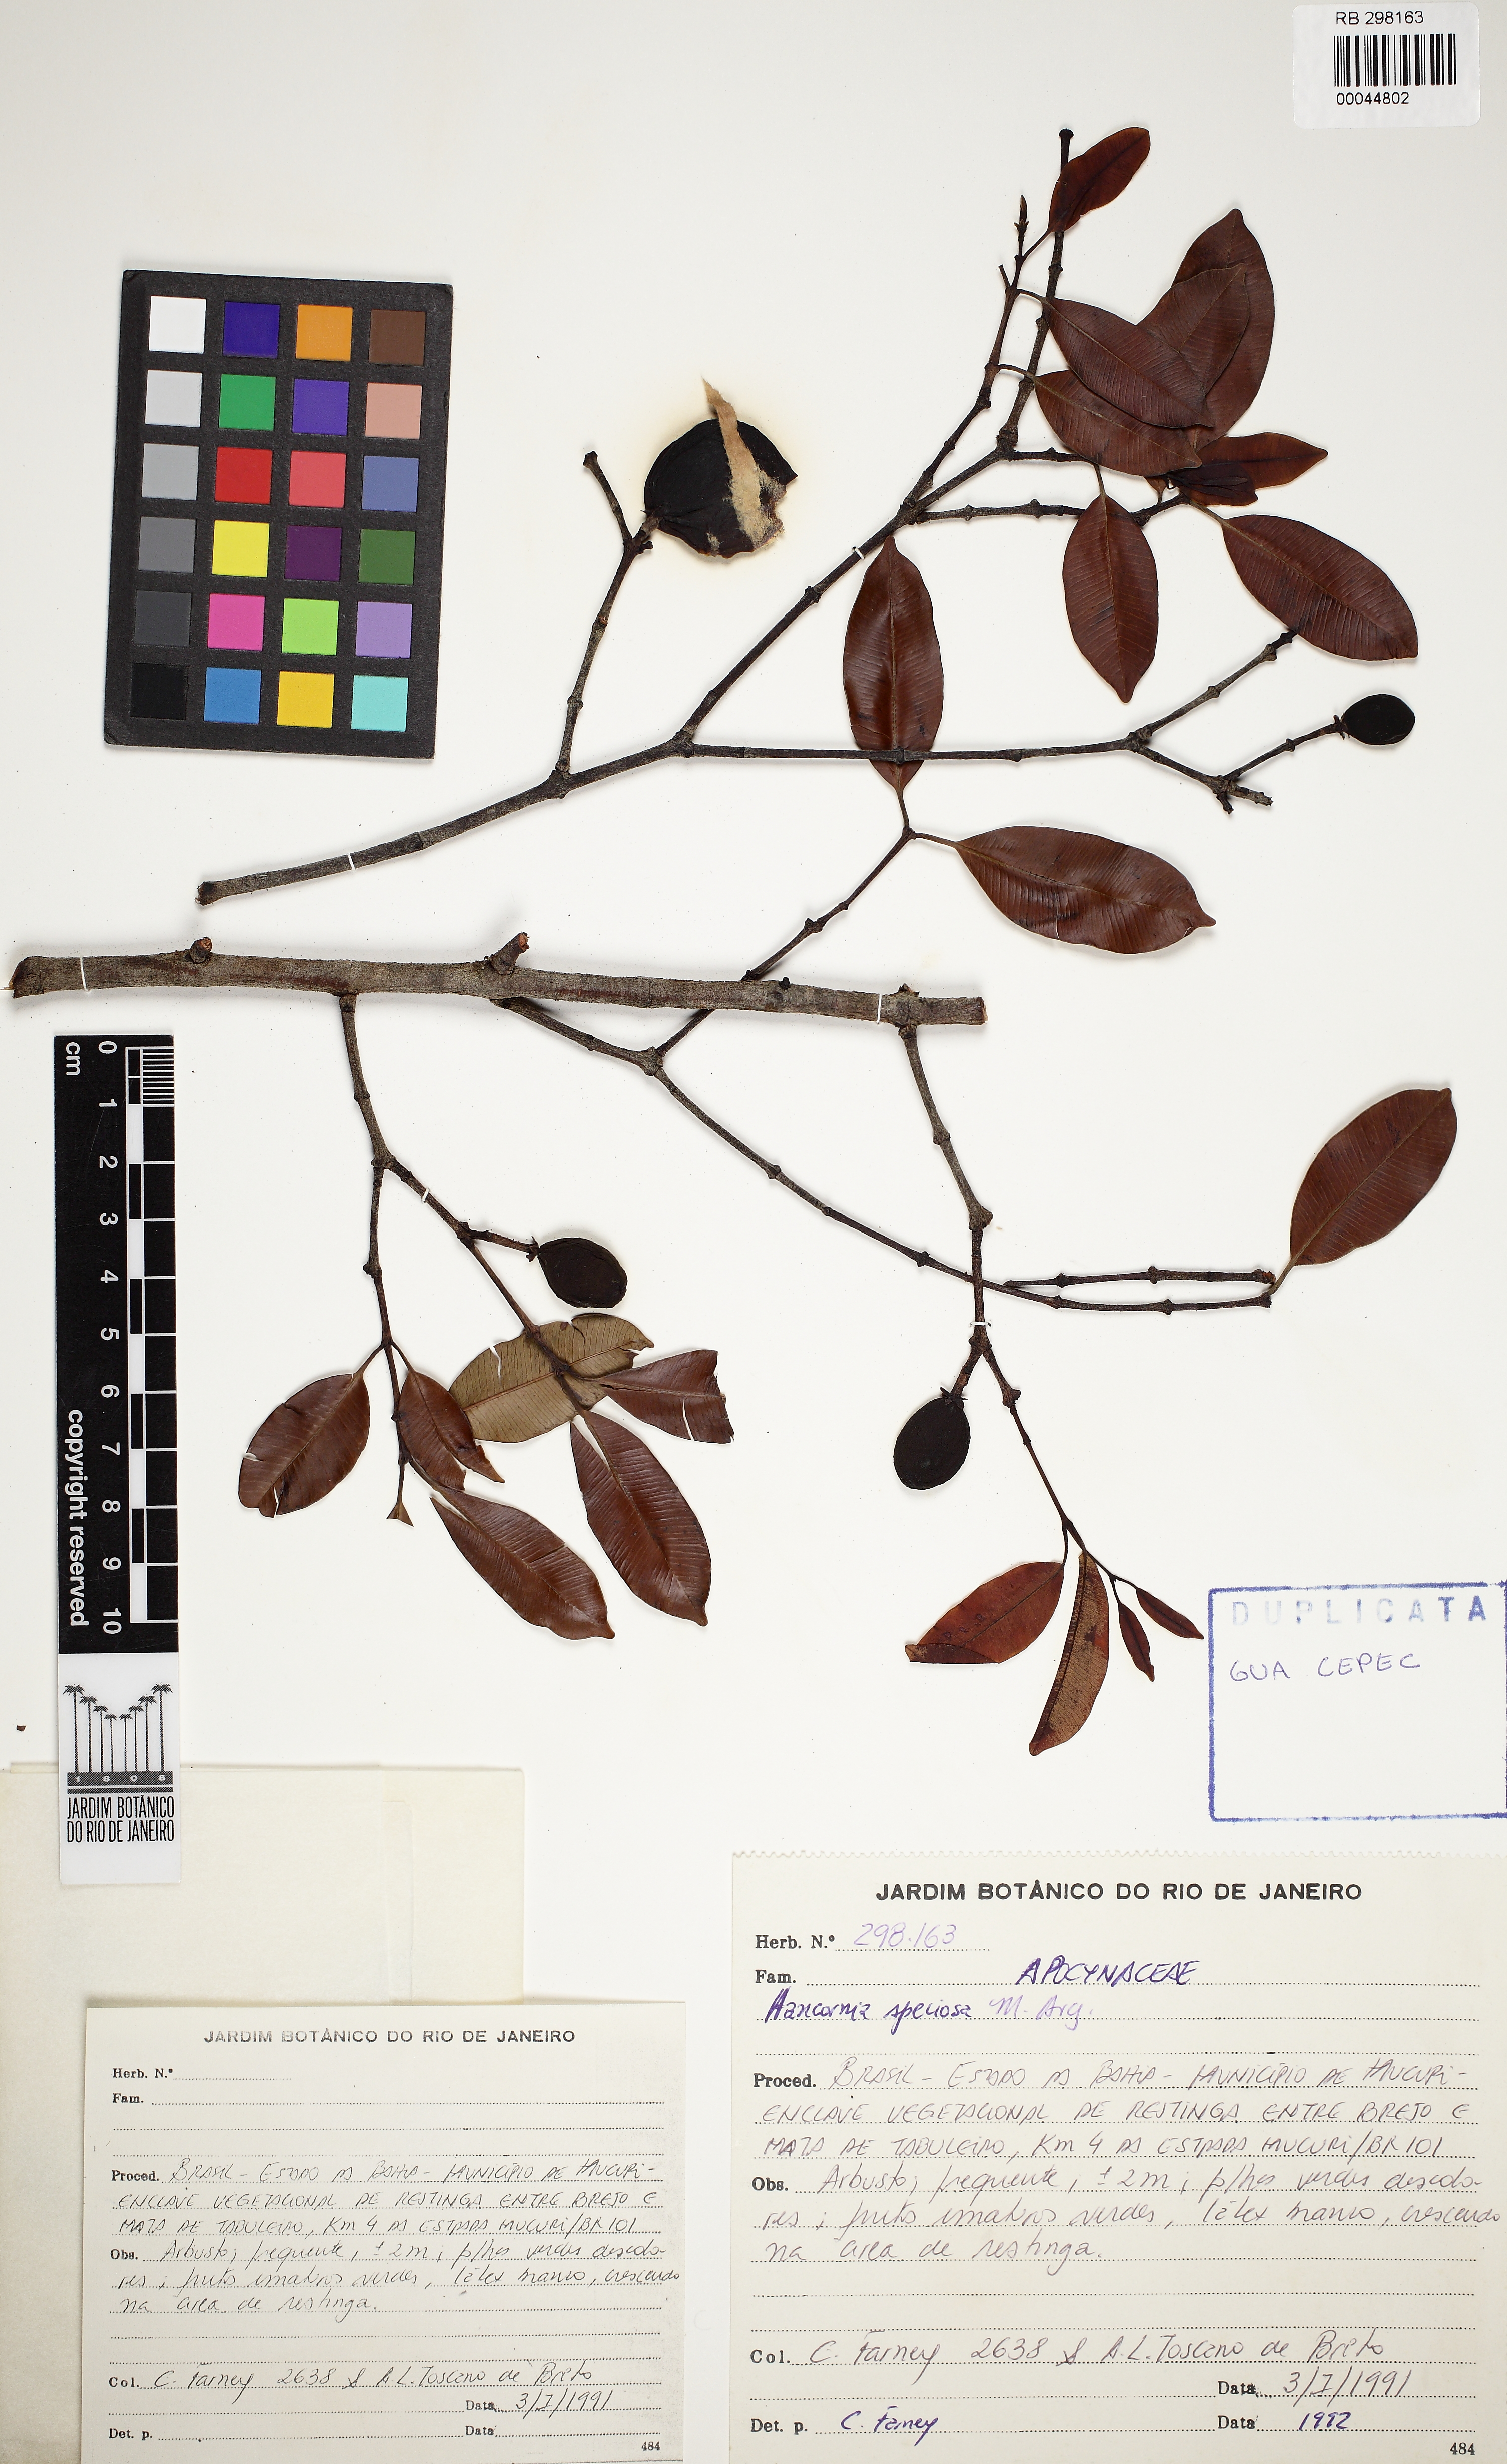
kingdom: Plantae
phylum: Tracheophyta
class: Magnoliopsida
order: Gentianales
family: Apocynaceae
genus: Hancornia
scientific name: Hancornia speciosa
